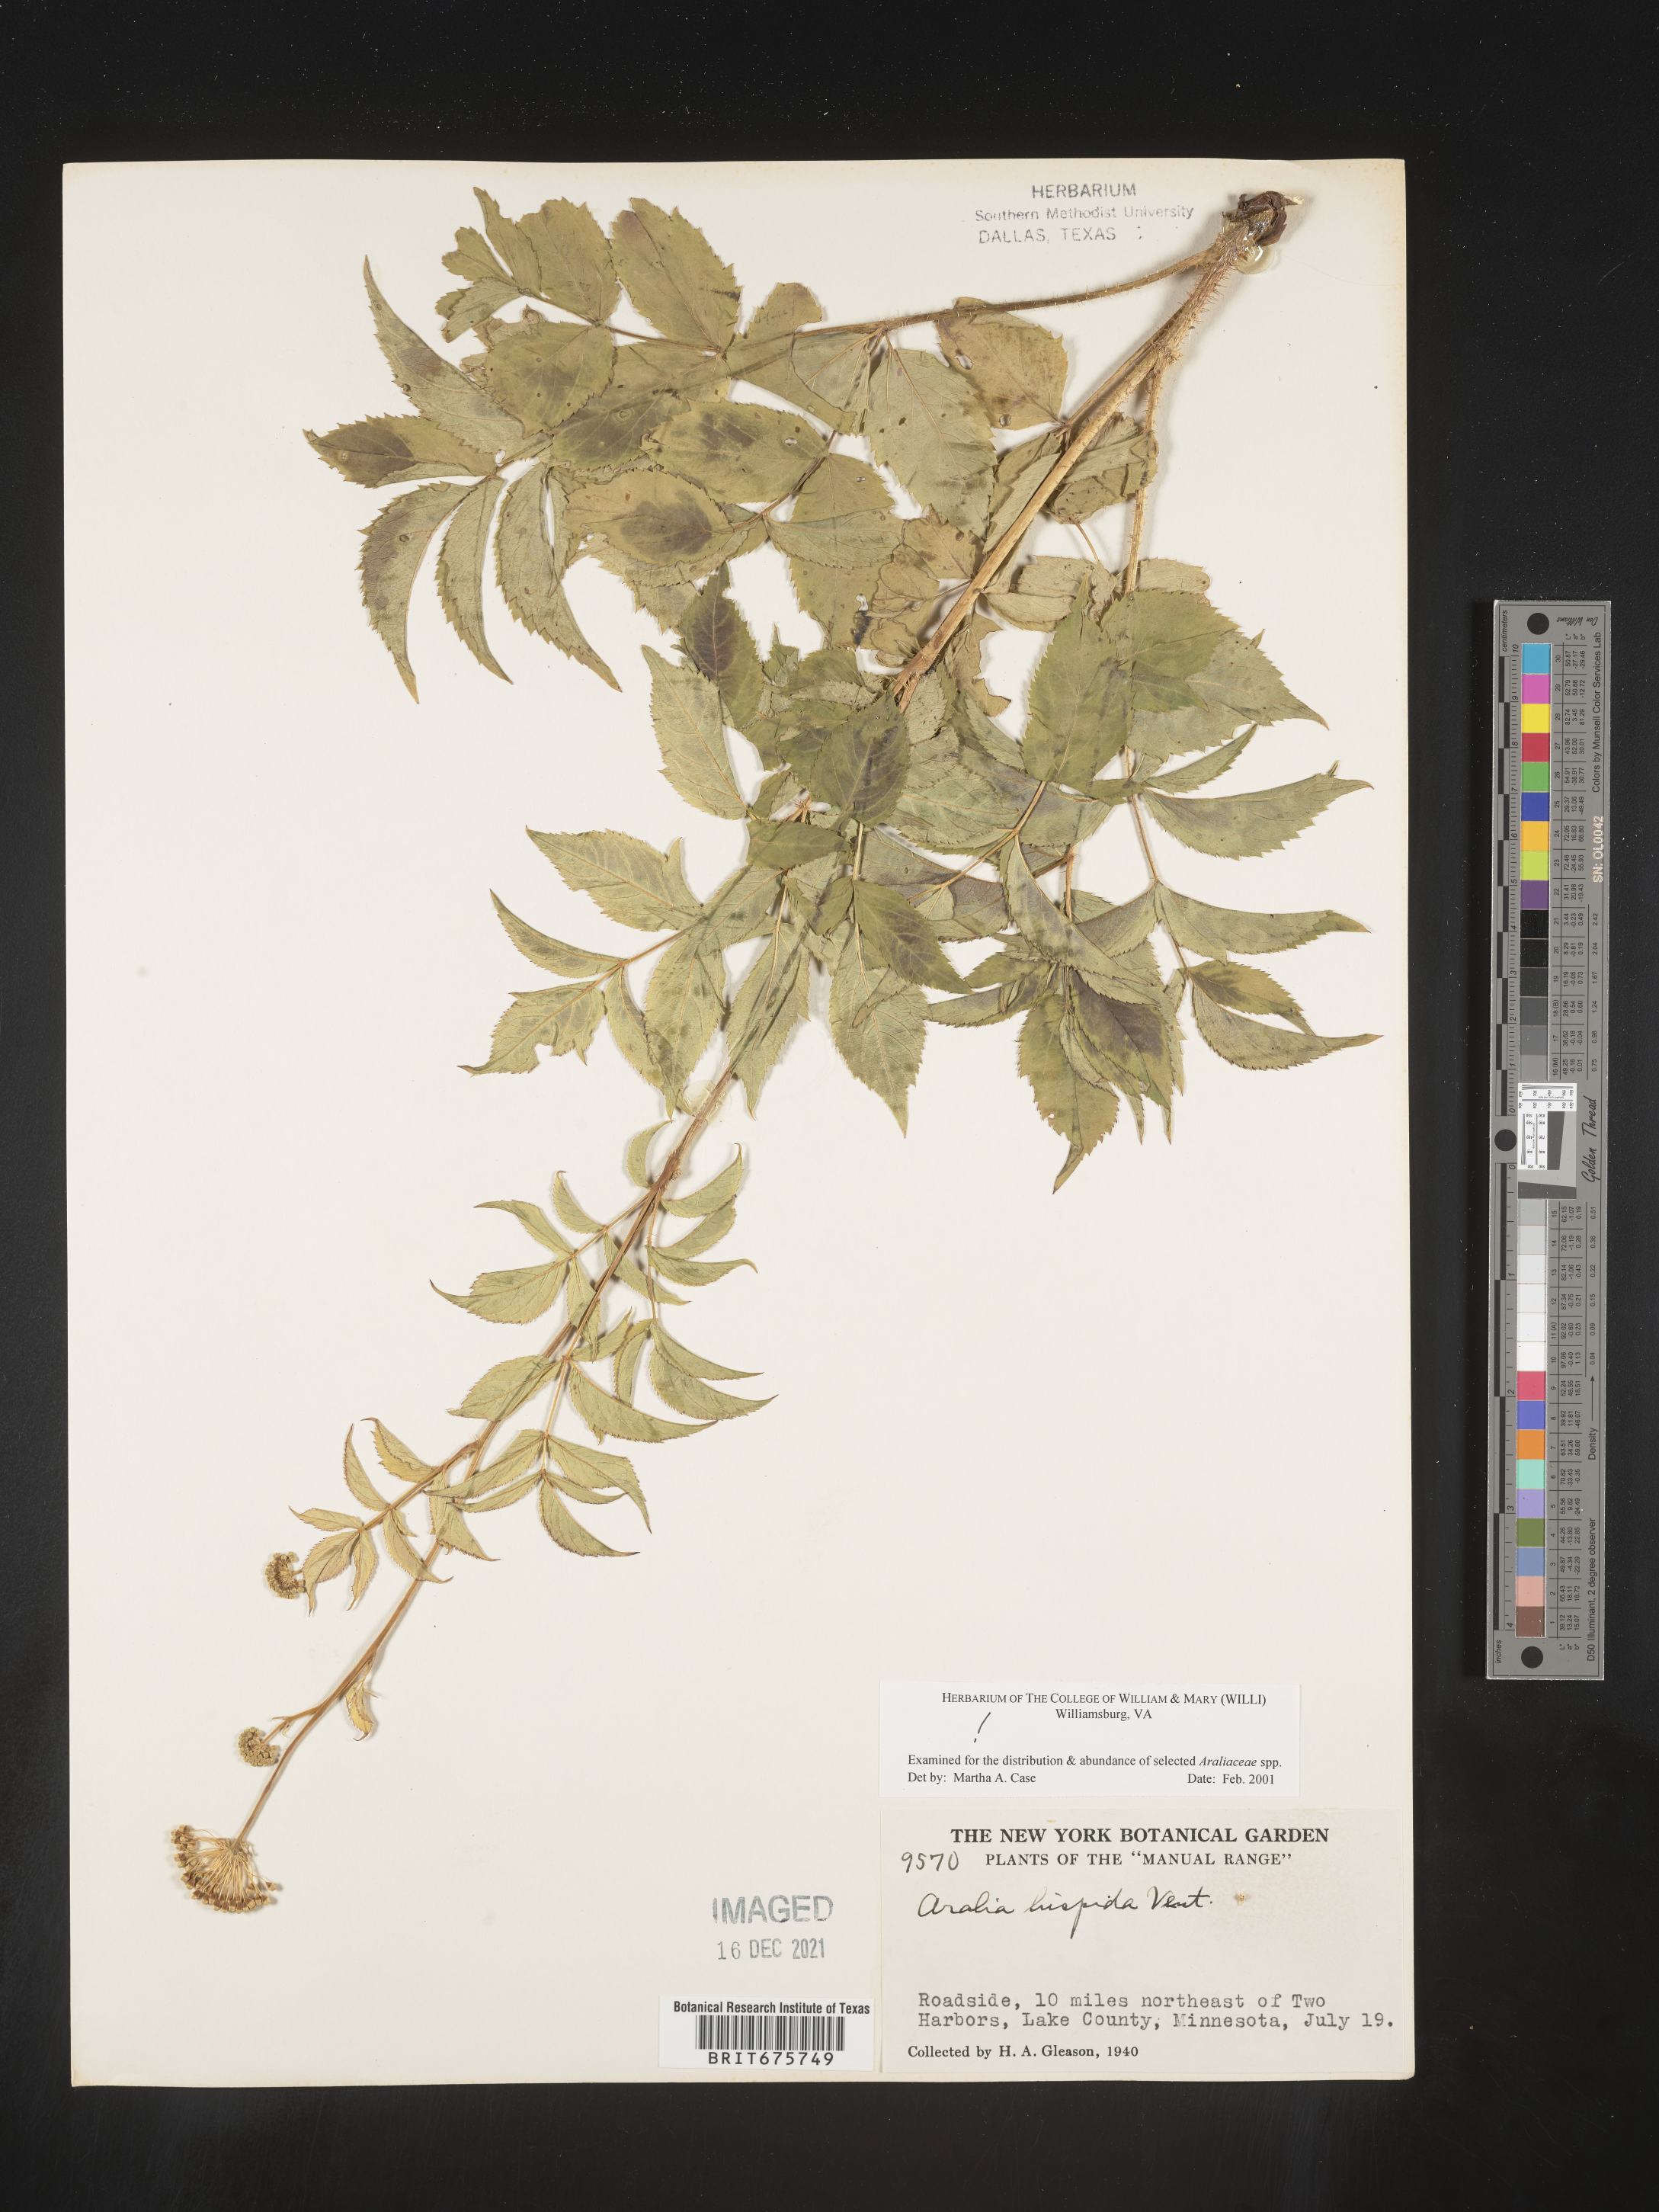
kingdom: Plantae
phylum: Tracheophyta
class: Magnoliopsida
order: Apiales
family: Araliaceae
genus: Aralia
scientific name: Aralia hispida
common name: Bristly sarsaparilla
